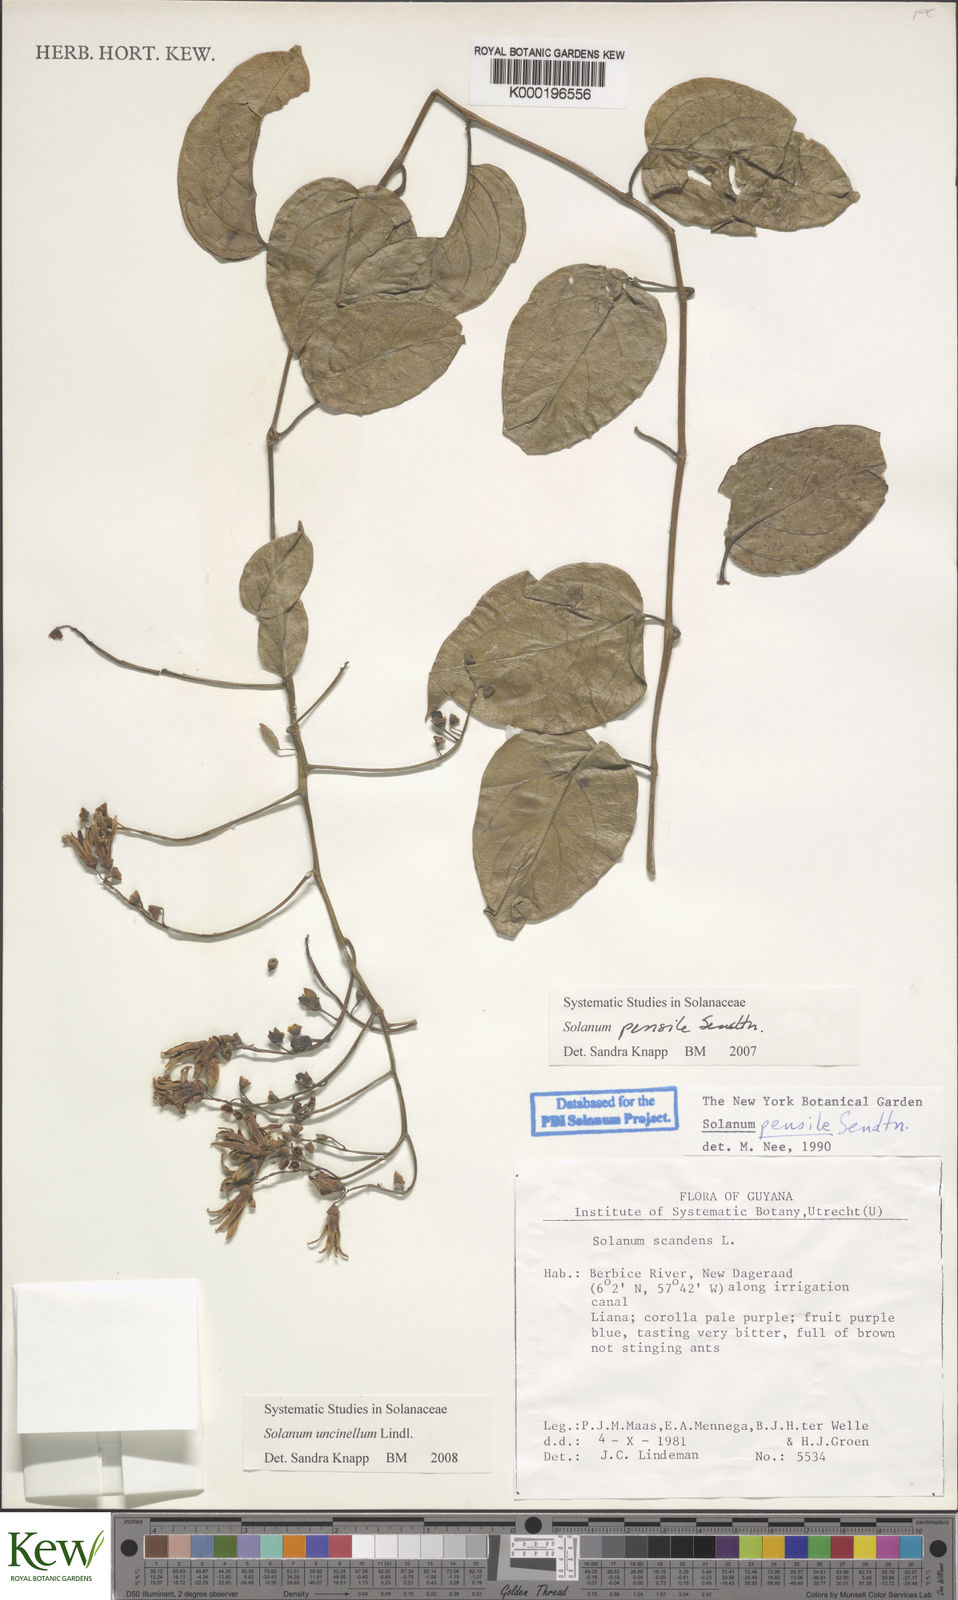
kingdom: Plantae
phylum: Tracheophyta
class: Magnoliopsida
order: Solanales
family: Solanaceae
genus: Solanum
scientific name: Solanum uncinellum
